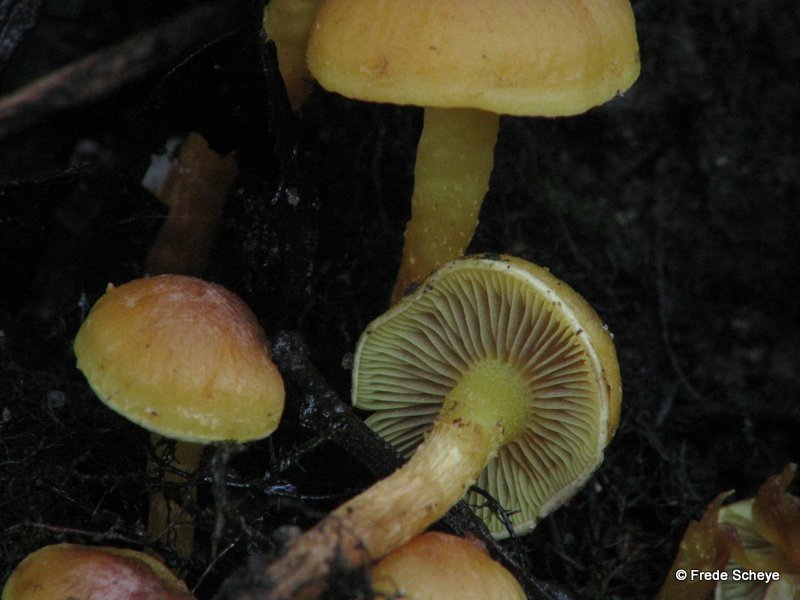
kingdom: Fungi
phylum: Basidiomycota
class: Agaricomycetes
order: Agaricales
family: Strophariaceae
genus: Hypholoma
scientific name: Hypholoma fasciculare
